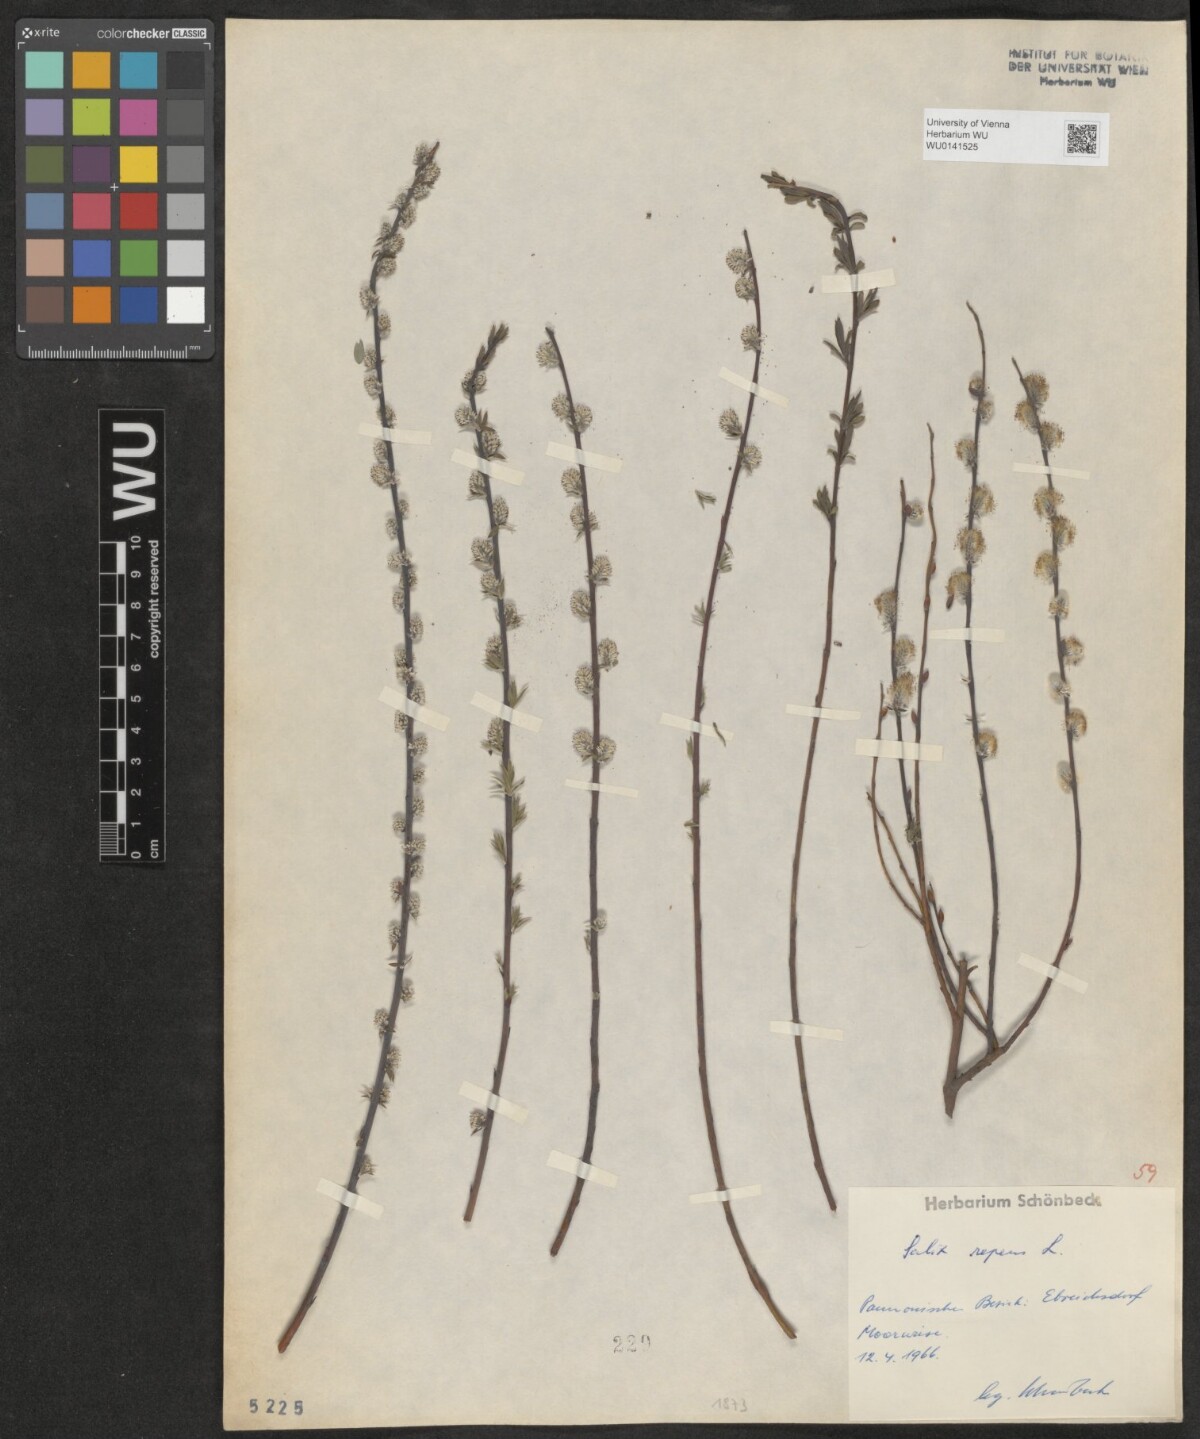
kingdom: Plantae
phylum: Tracheophyta
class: Magnoliopsida
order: Malpighiales
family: Salicaceae
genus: Salix
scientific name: Salix repens
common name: Creeping willow
